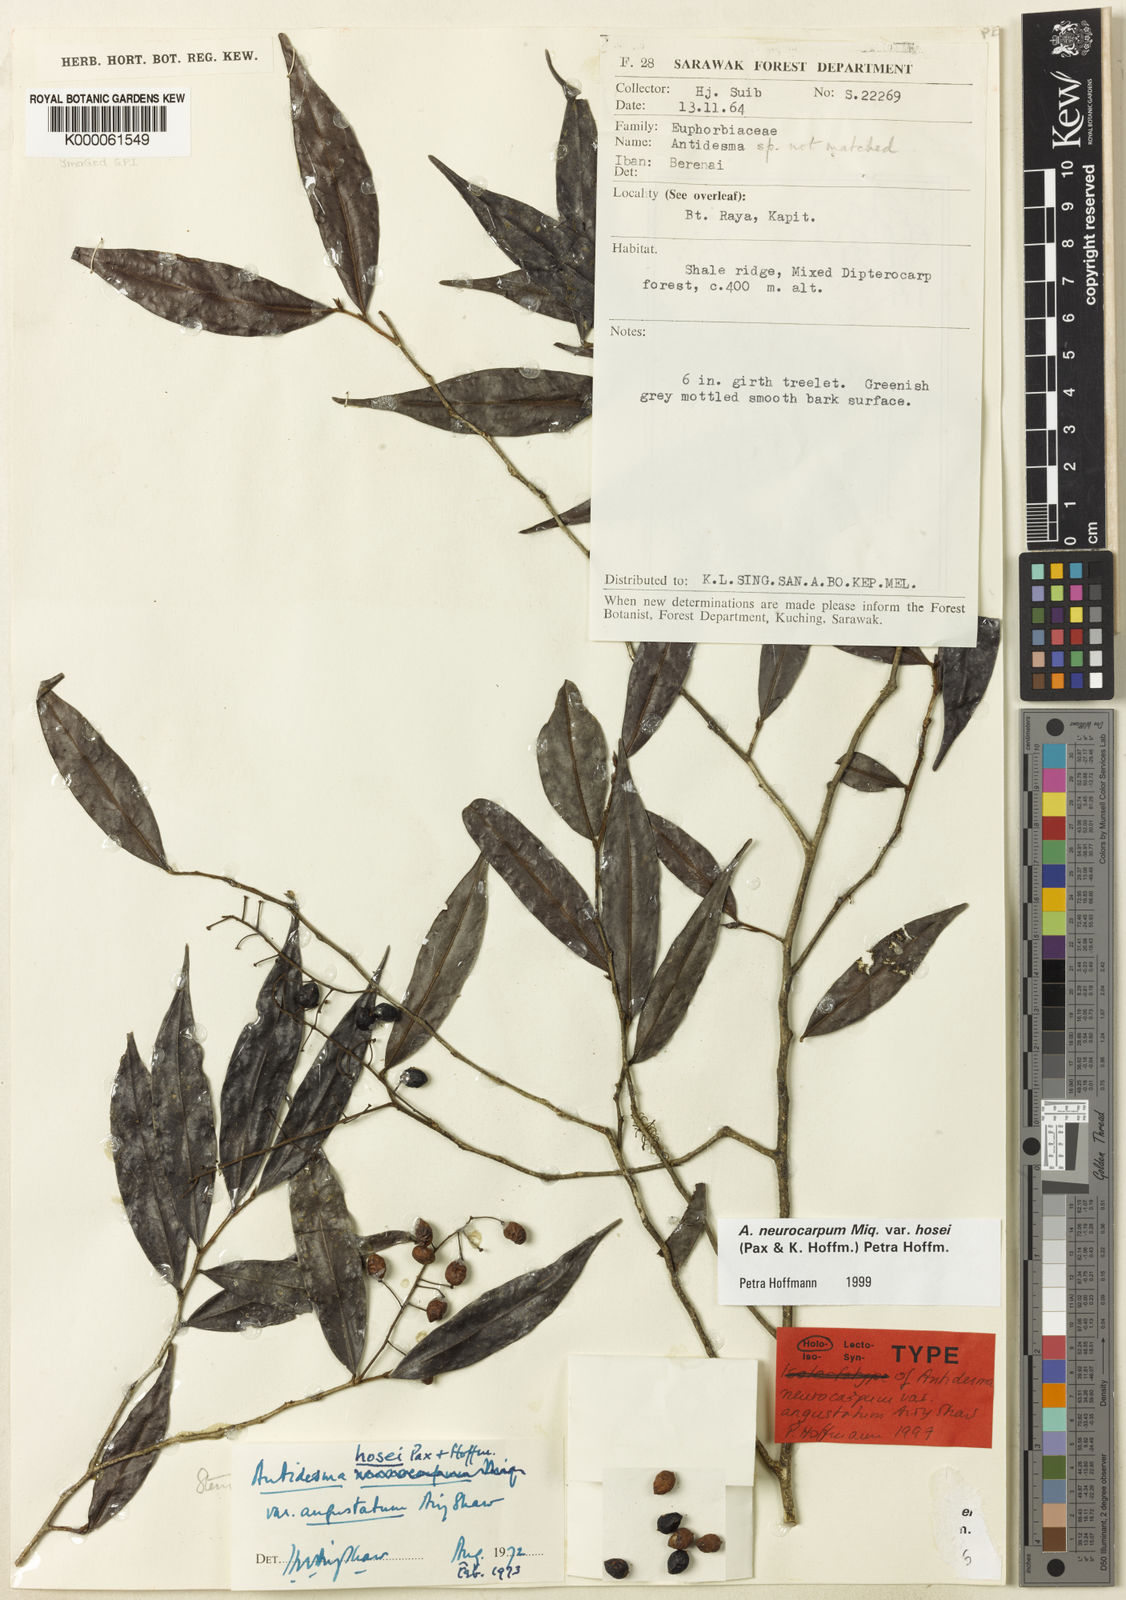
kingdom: Plantae
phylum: Tracheophyta
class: Magnoliopsida
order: Malpighiales
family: Phyllanthaceae
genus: Antidesma
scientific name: Antidesma neurocarpum
